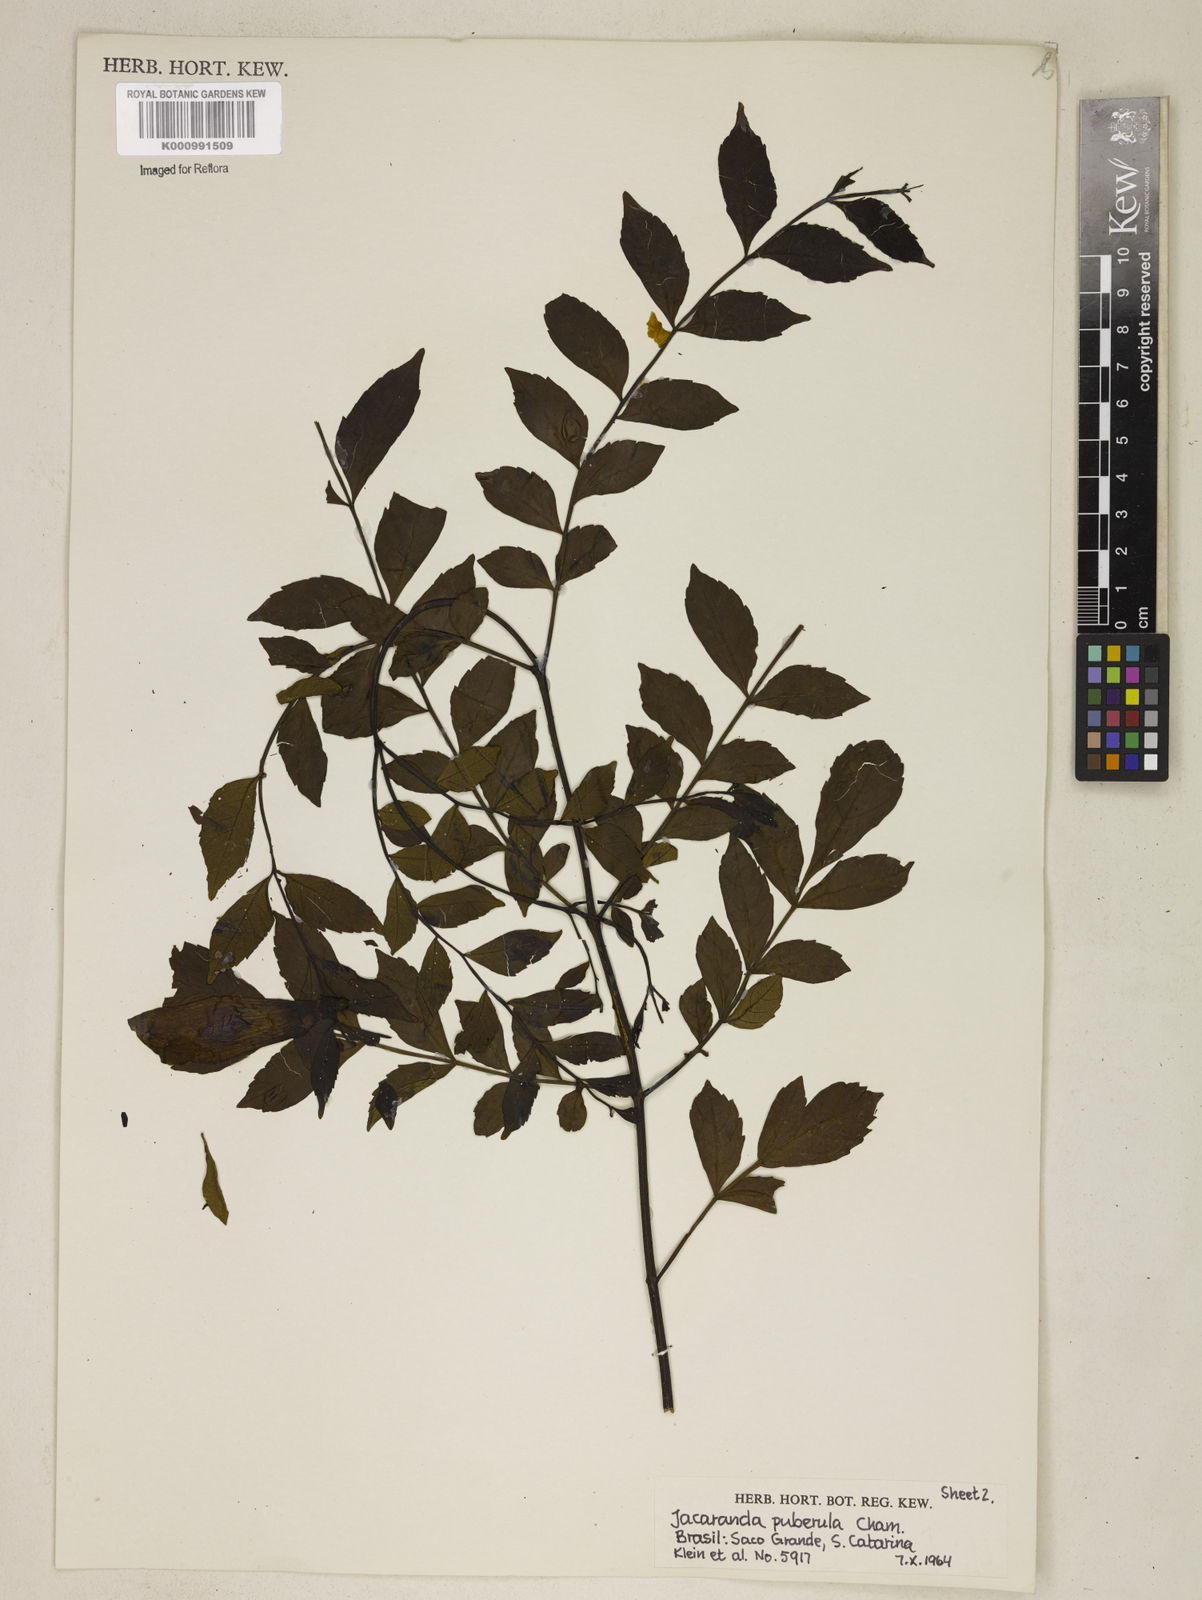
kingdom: Plantae
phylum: Tracheophyta
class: Magnoliopsida
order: Lamiales
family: Bignoniaceae
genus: Jacaranda
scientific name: Jacaranda puberula
